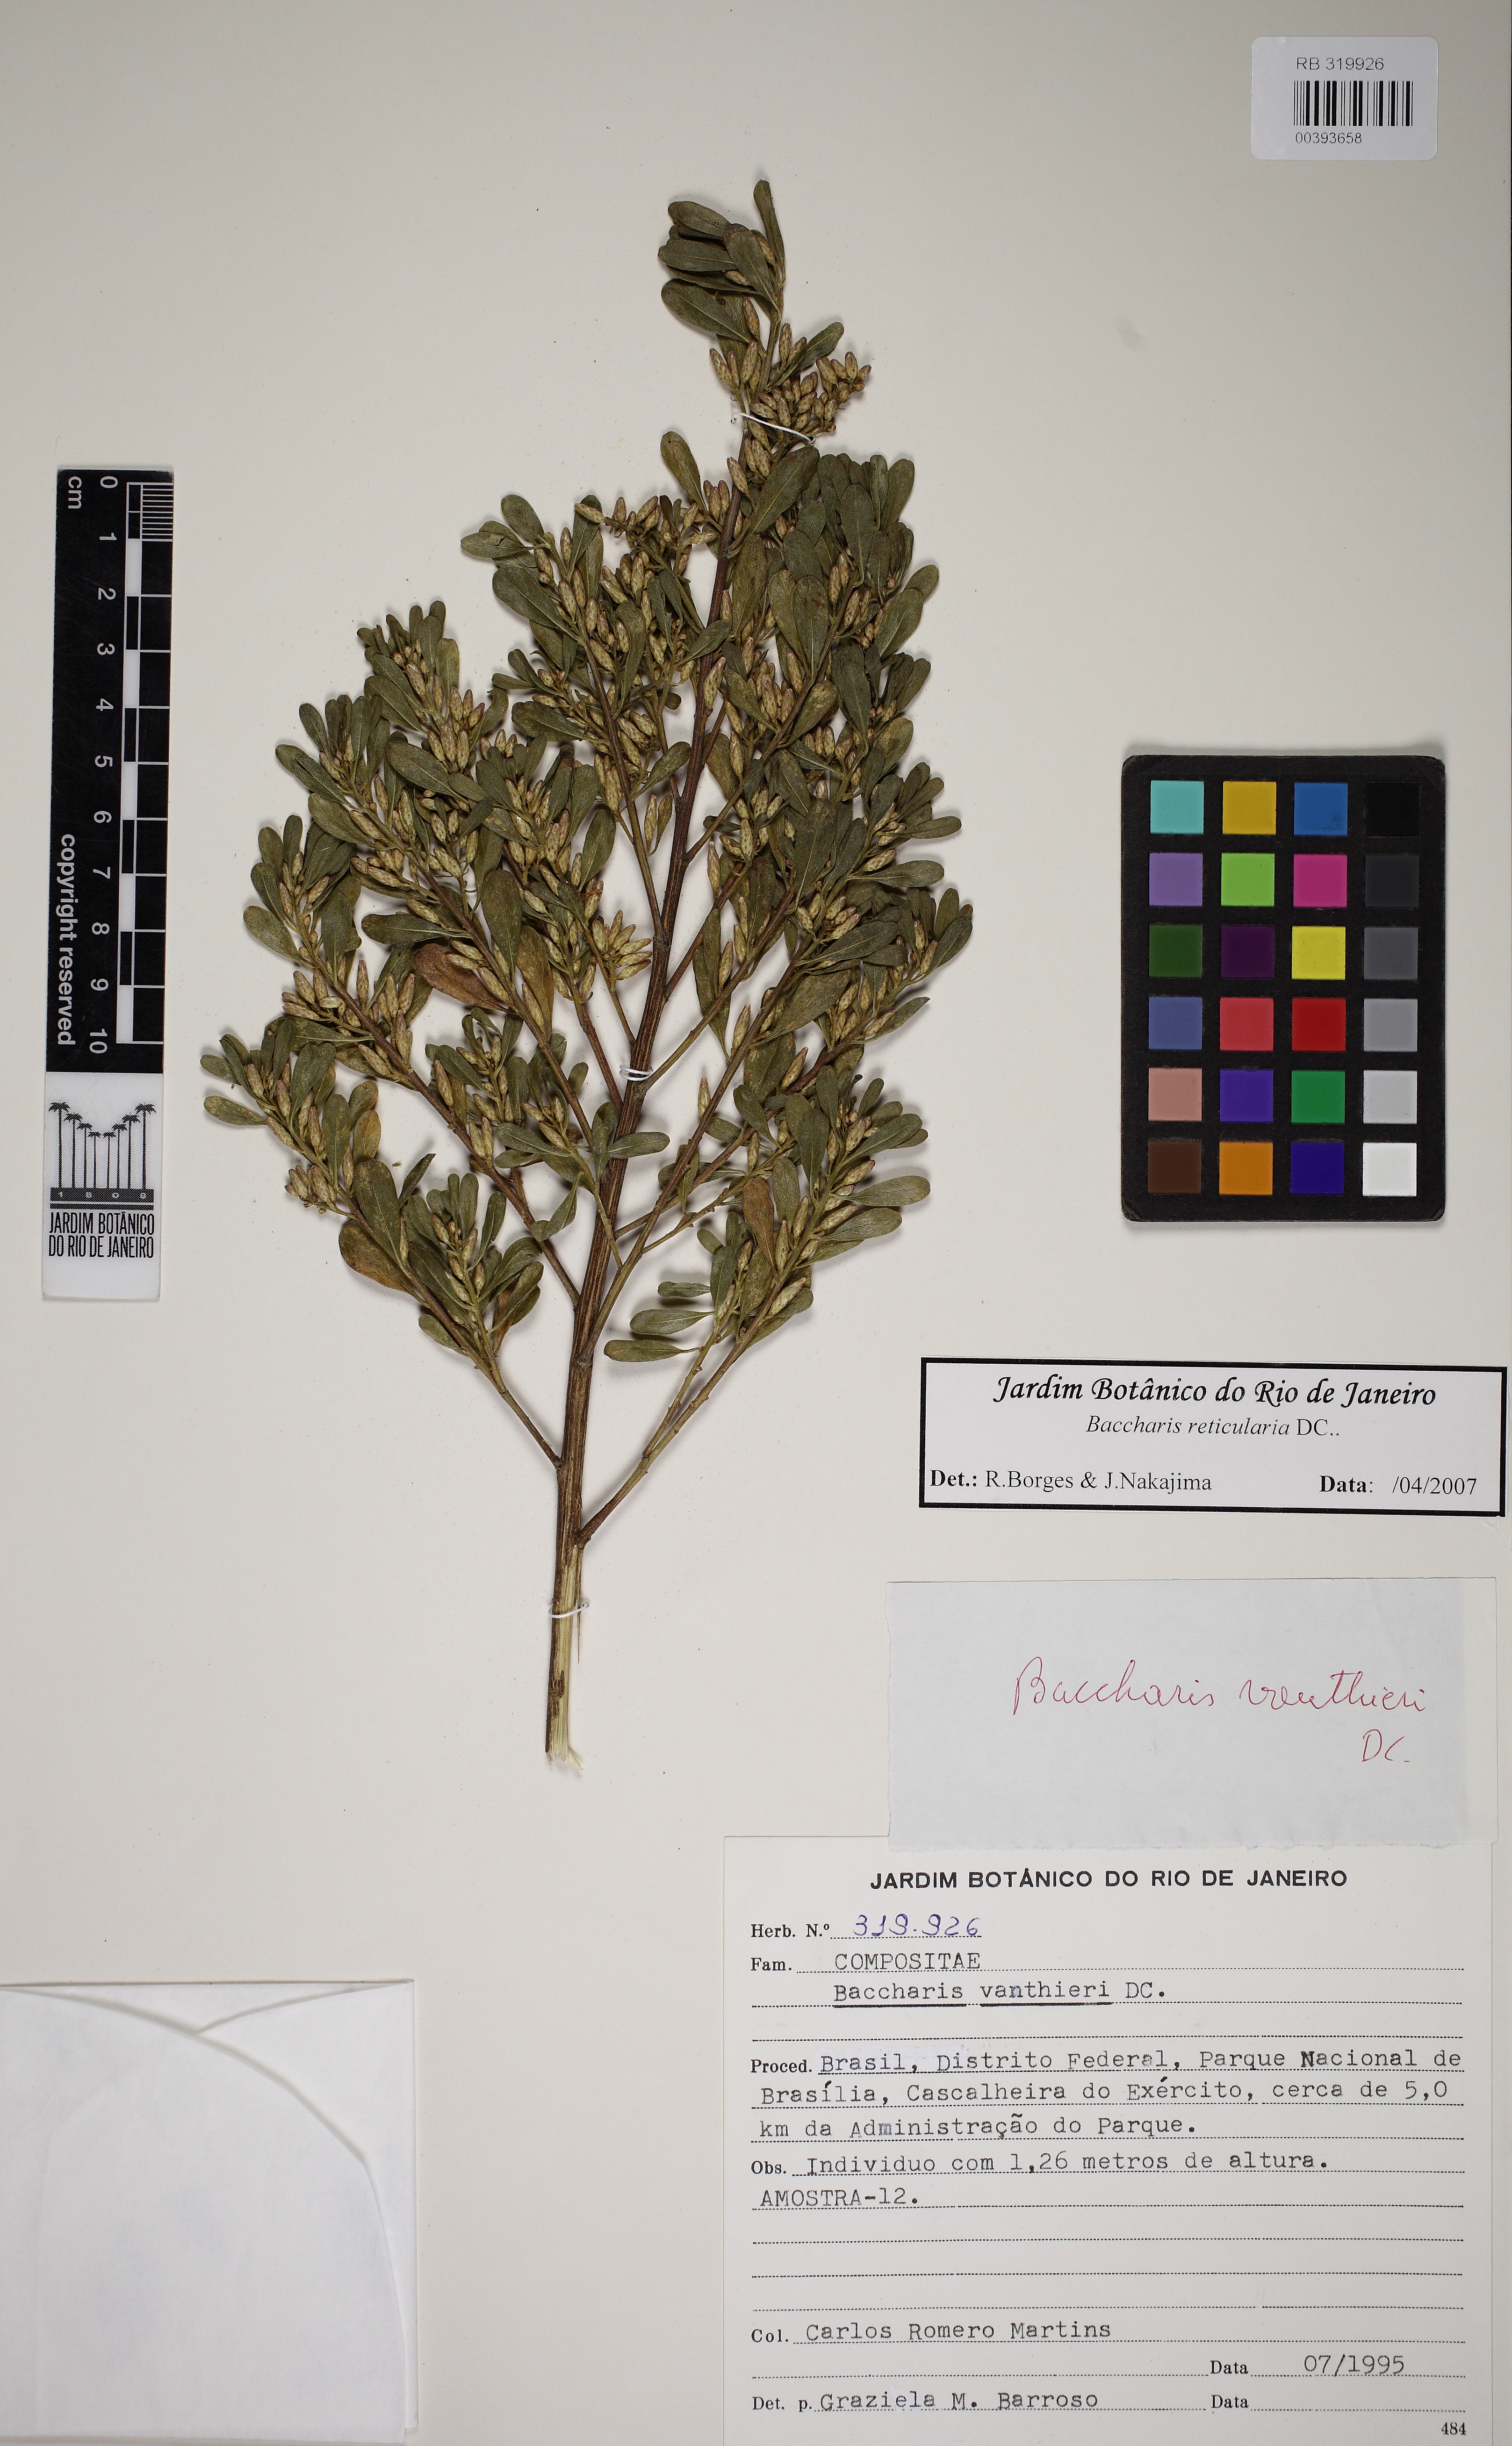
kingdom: Plantae
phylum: Tracheophyta
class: Magnoliopsida
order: Asterales
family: Asteraceae
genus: Baccharis
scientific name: Baccharis reticularia
